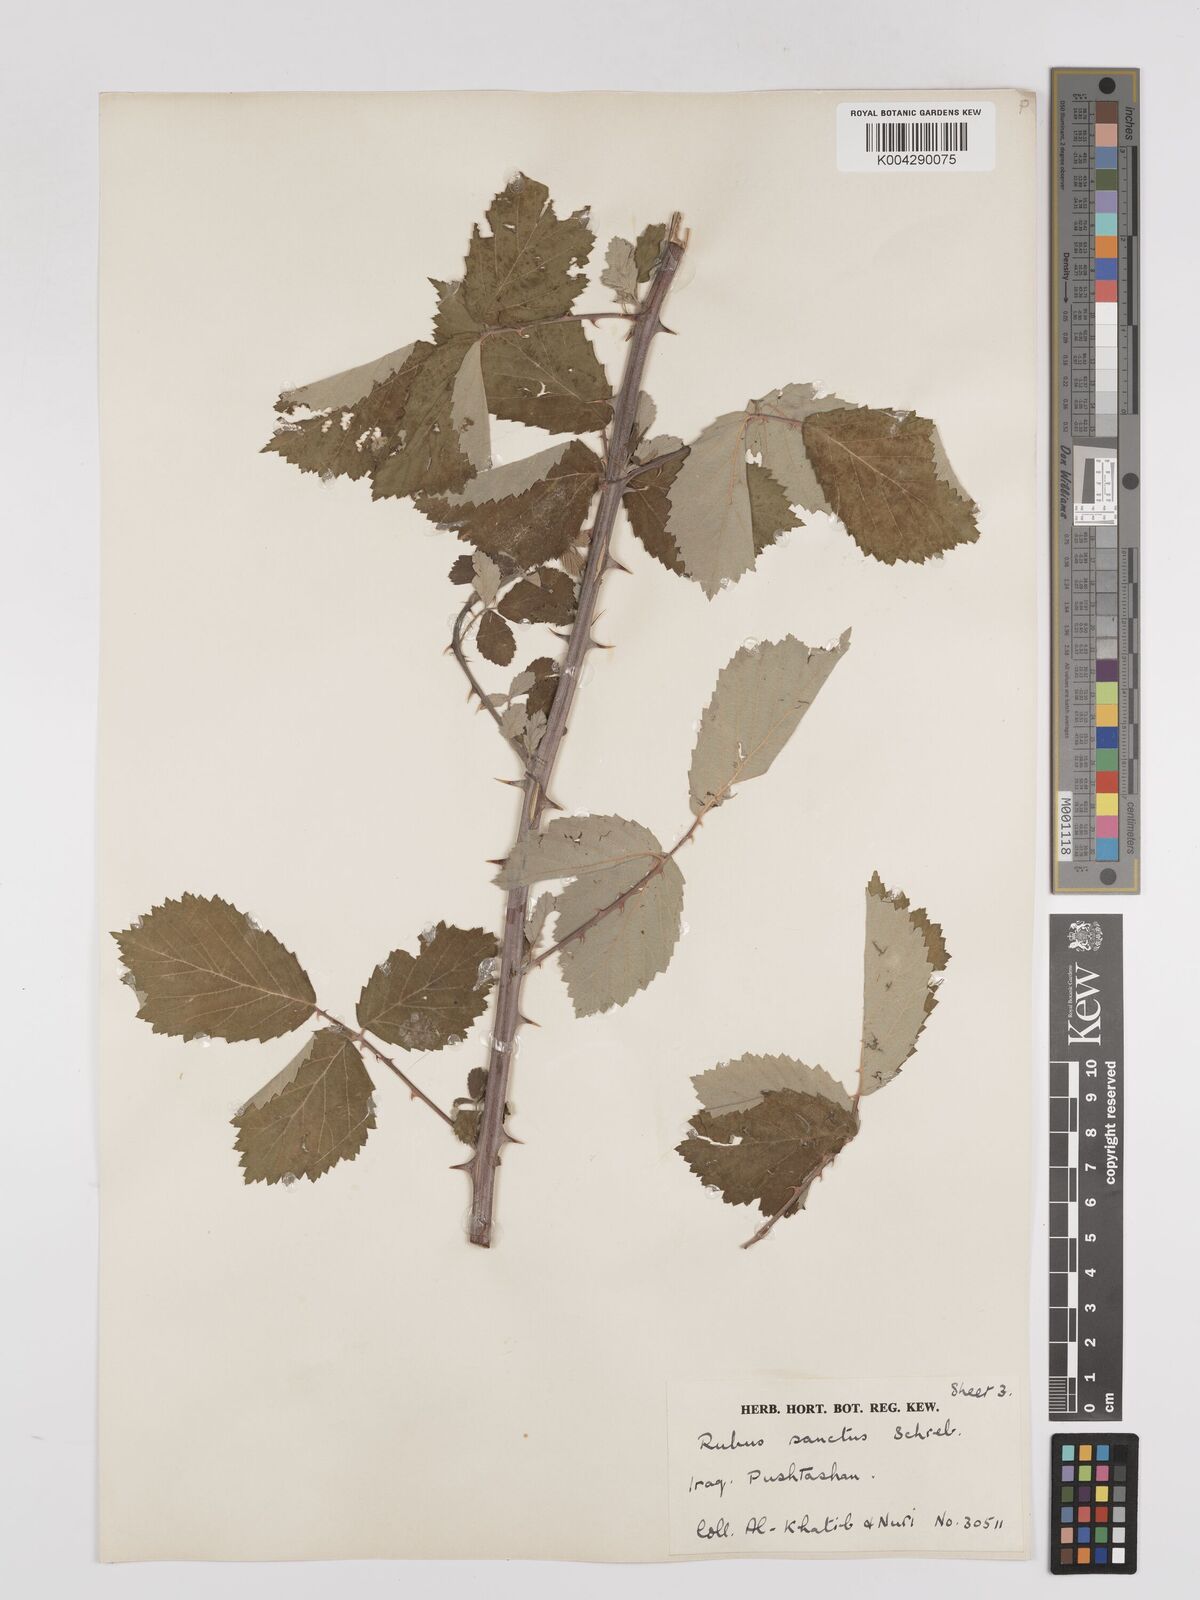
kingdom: Plantae
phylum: Tracheophyta
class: Magnoliopsida
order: Rosales
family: Rosaceae
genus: Rubus
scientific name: Rubus sanctus
